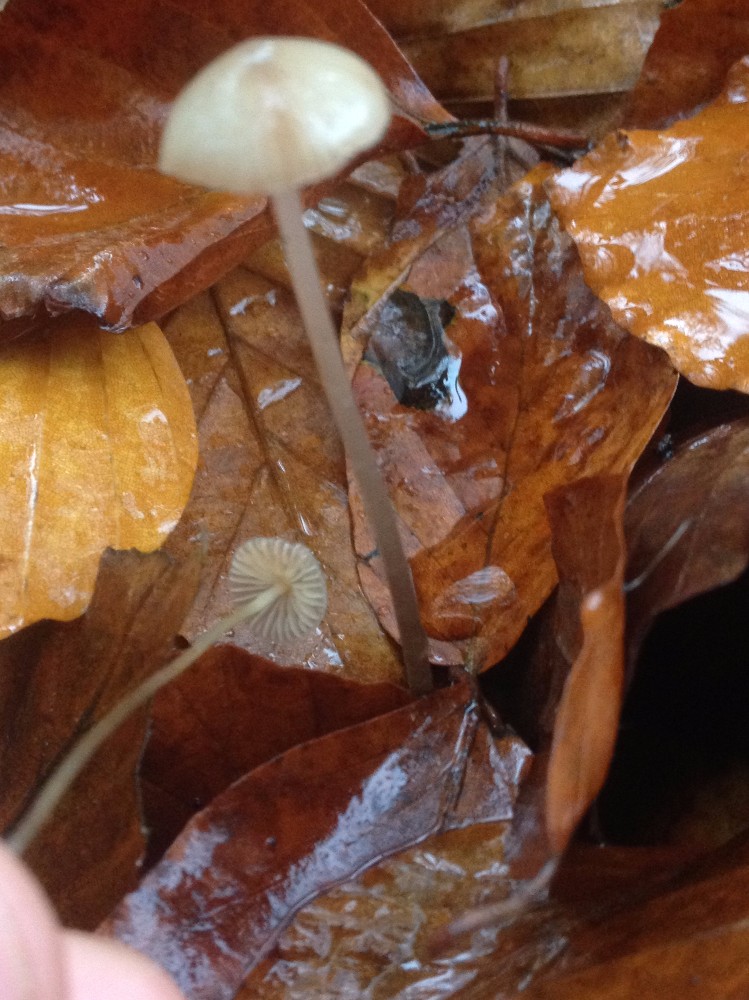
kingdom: Fungi
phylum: Basidiomycota
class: Agaricomycetes
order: Agaricales
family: Tricholomataceae
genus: Mycenella
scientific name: Mycenella
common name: dughat
